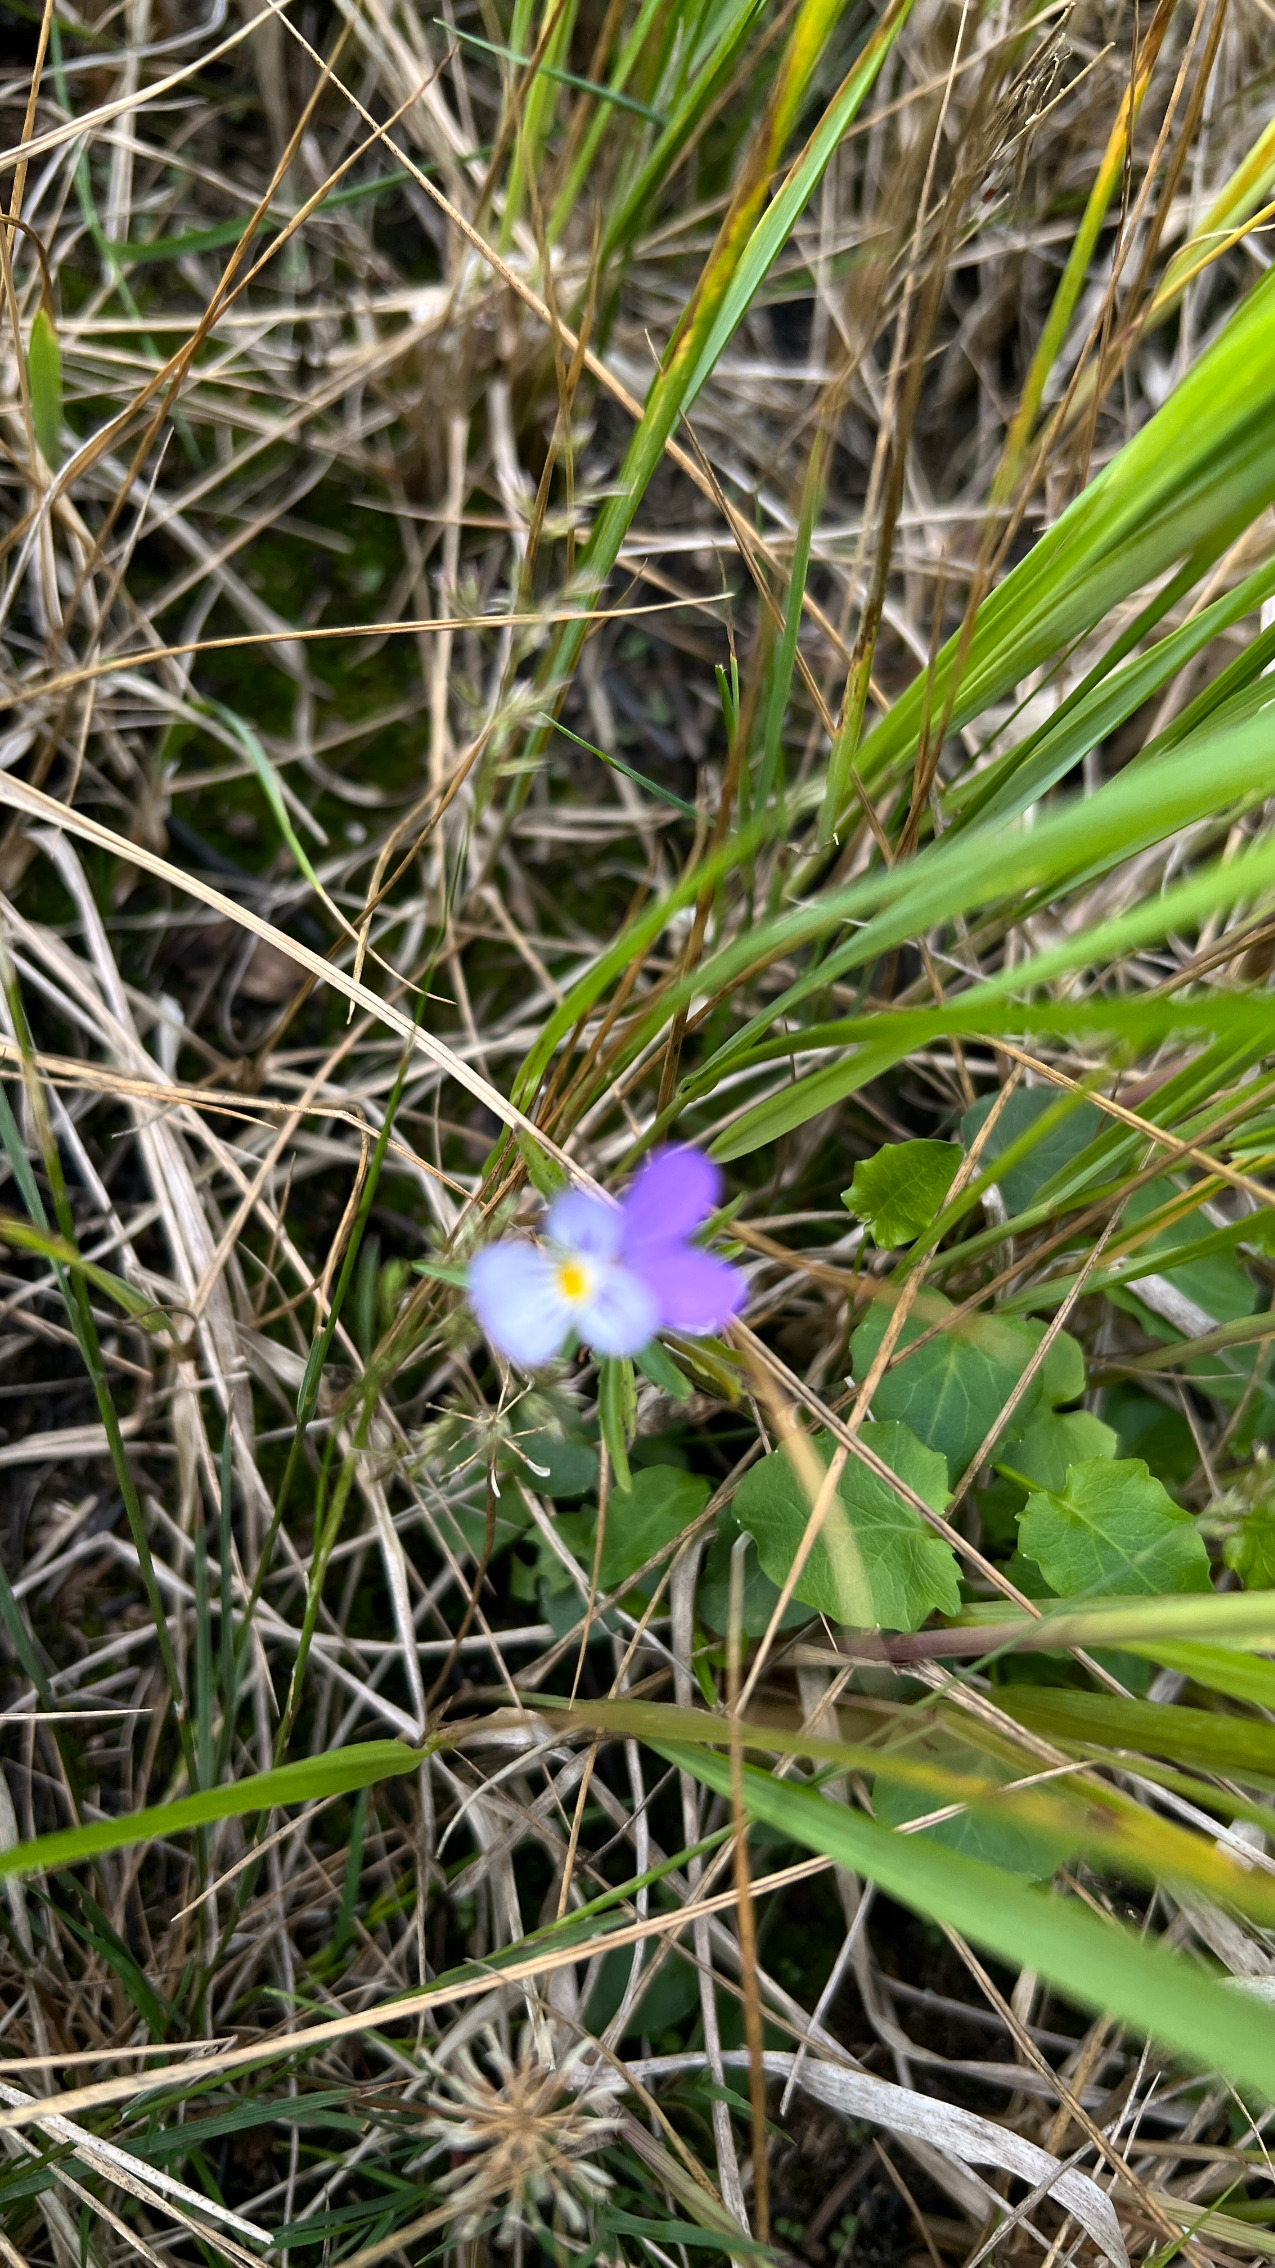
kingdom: Plantae
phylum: Tracheophyta
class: Magnoliopsida
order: Malpighiales
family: Violaceae
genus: Viola
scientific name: Viola tricolor
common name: Almindelig stedmoderblomst
